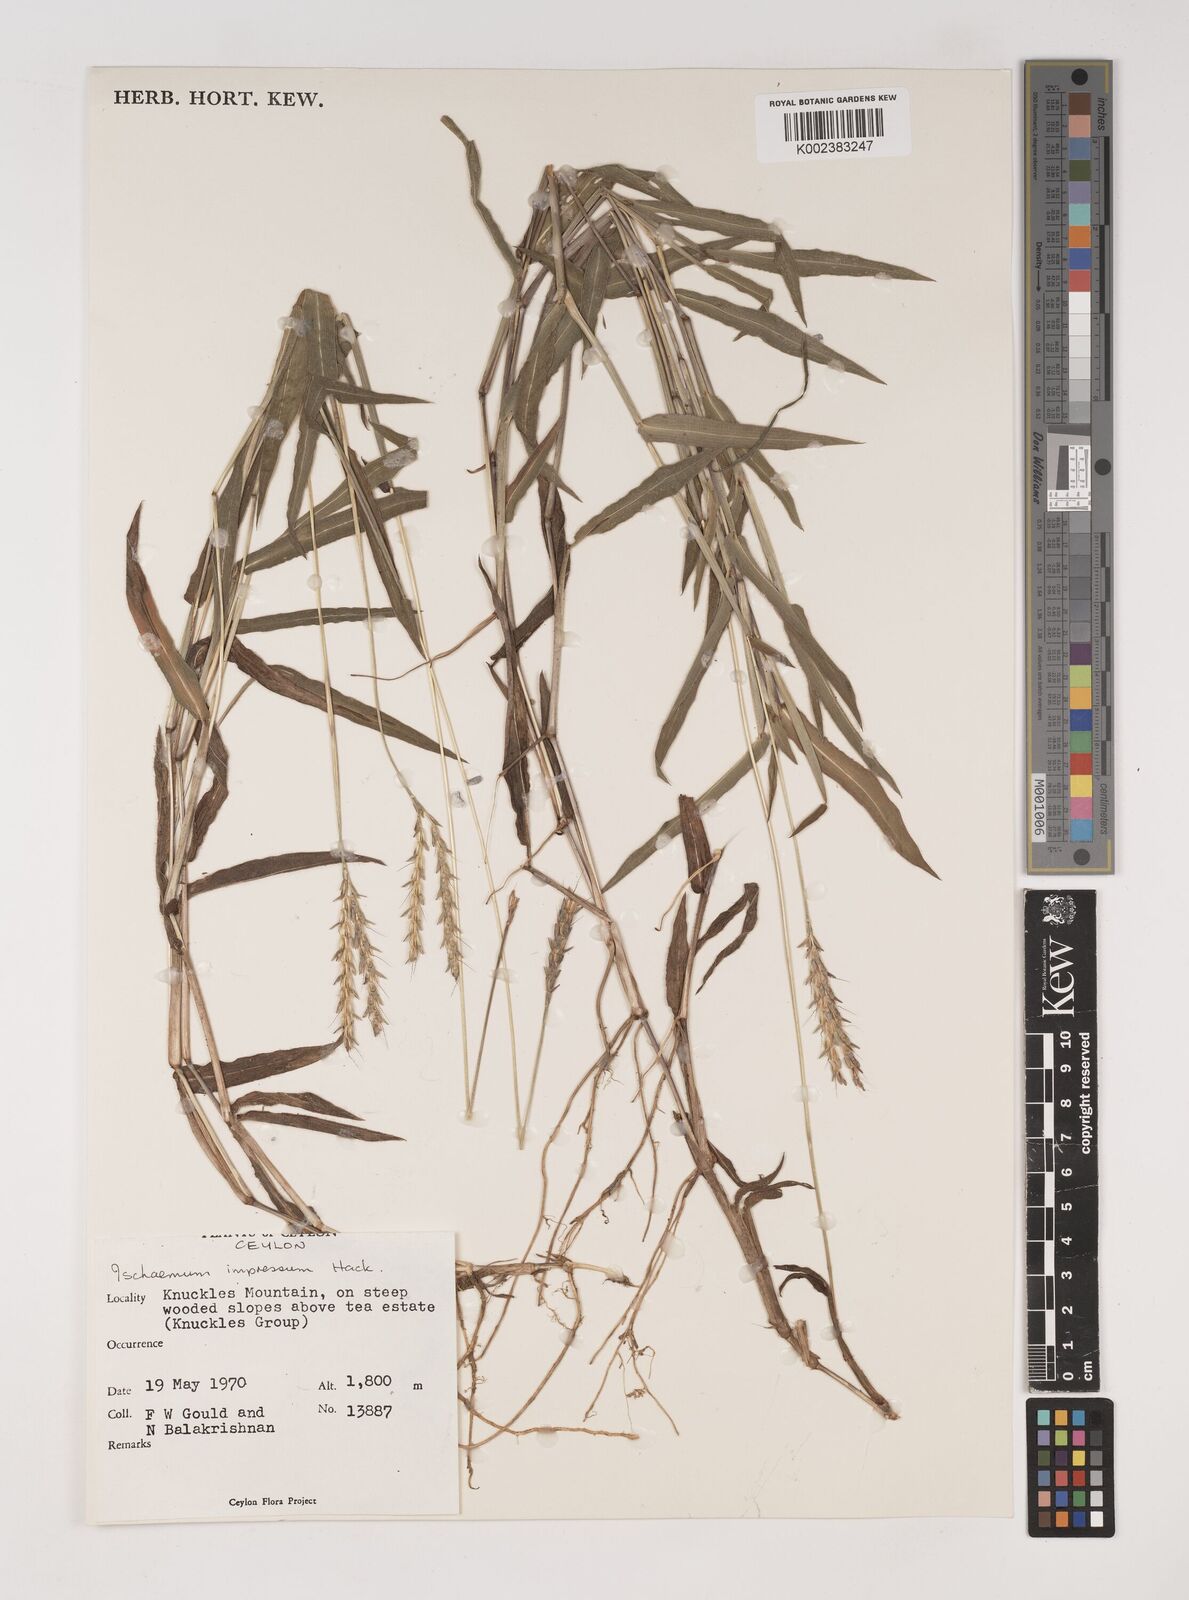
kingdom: Plantae
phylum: Tracheophyta
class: Liliopsida
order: Poales
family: Poaceae
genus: Ischaemum
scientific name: Ischaemum impressum
